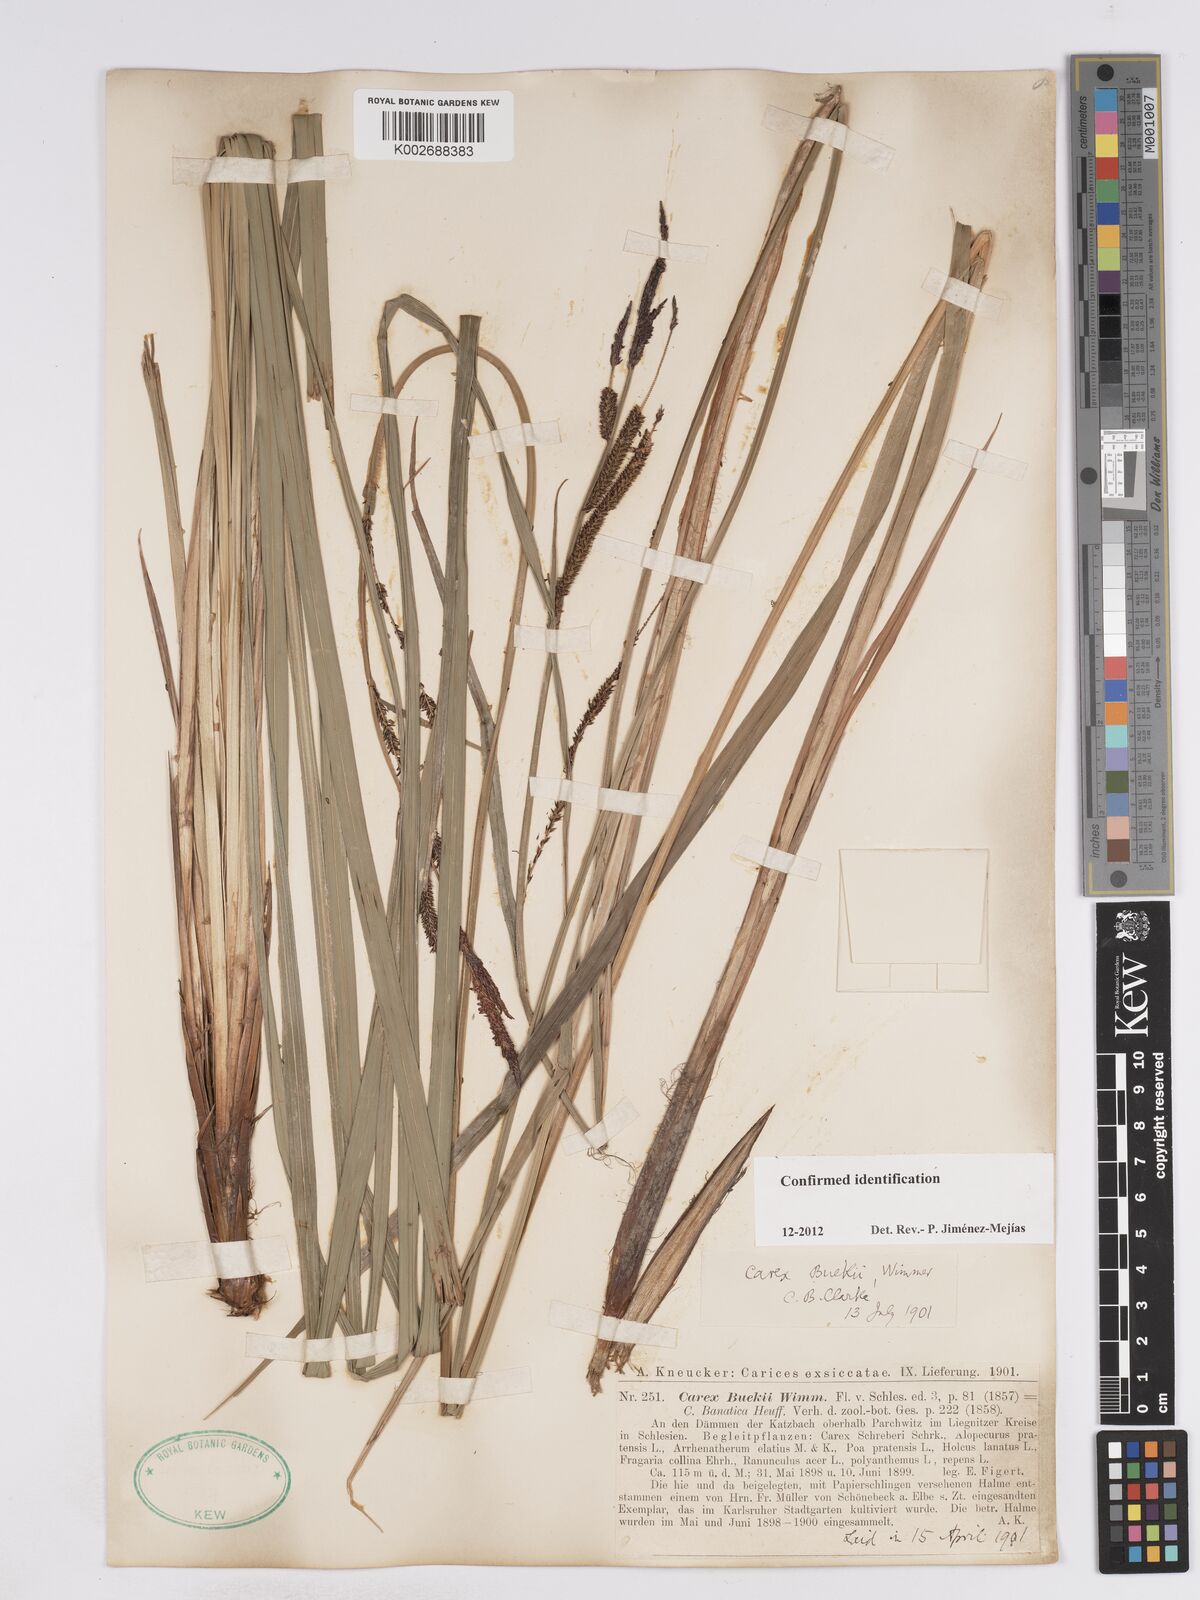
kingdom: Plantae
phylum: Tracheophyta
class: Liliopsida
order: Poales
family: Cyperaceae
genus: Carex
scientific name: Carex buekii
